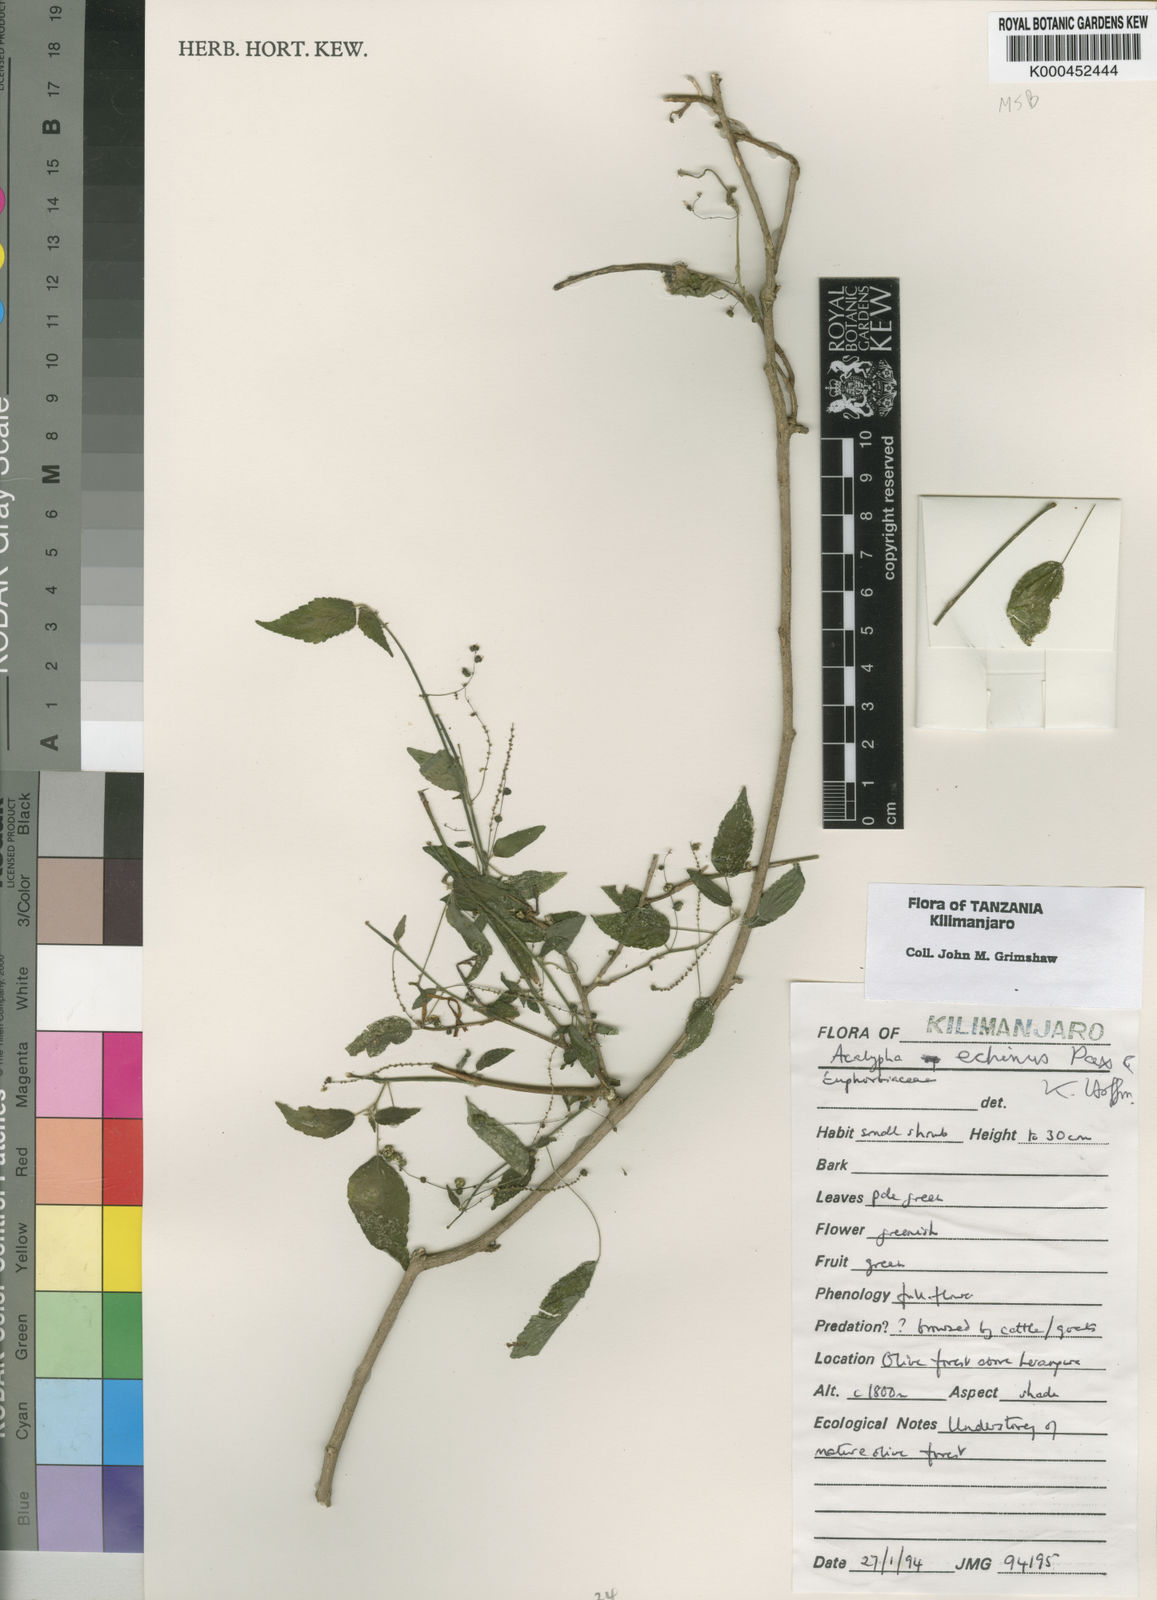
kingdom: Plantae
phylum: Tracheophyta
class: Magnoliopsida
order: Malpighiales
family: Euphorbiaceae
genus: Acalypha
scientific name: Acalypha echinus
